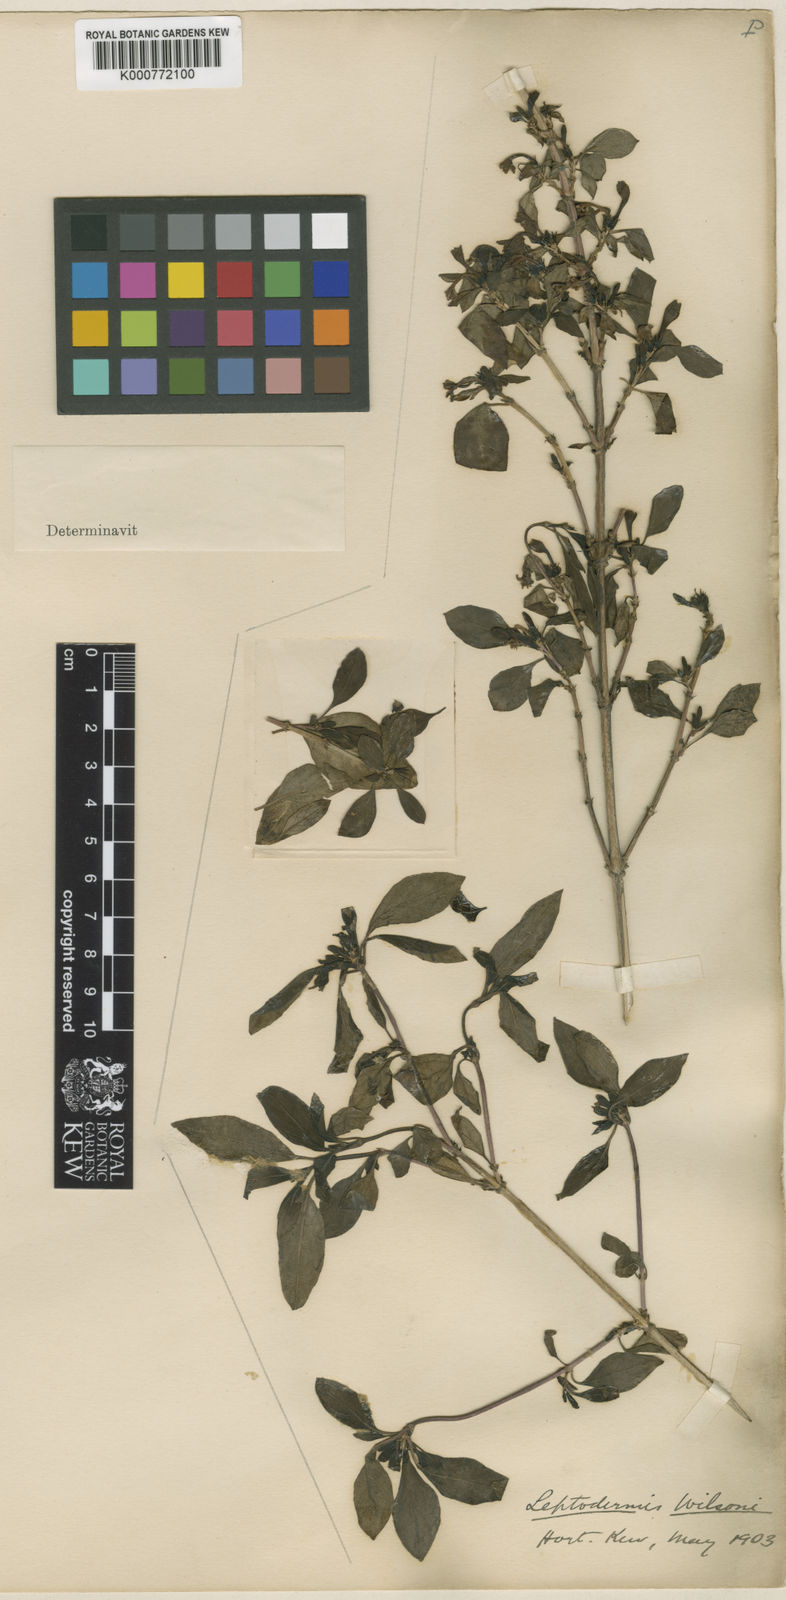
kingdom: Plantae
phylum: Tracheophyta
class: Magnoliopsida
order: Gentianales
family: Rubiaceae
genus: Leptodermis
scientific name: Leptodermis wilsonii
